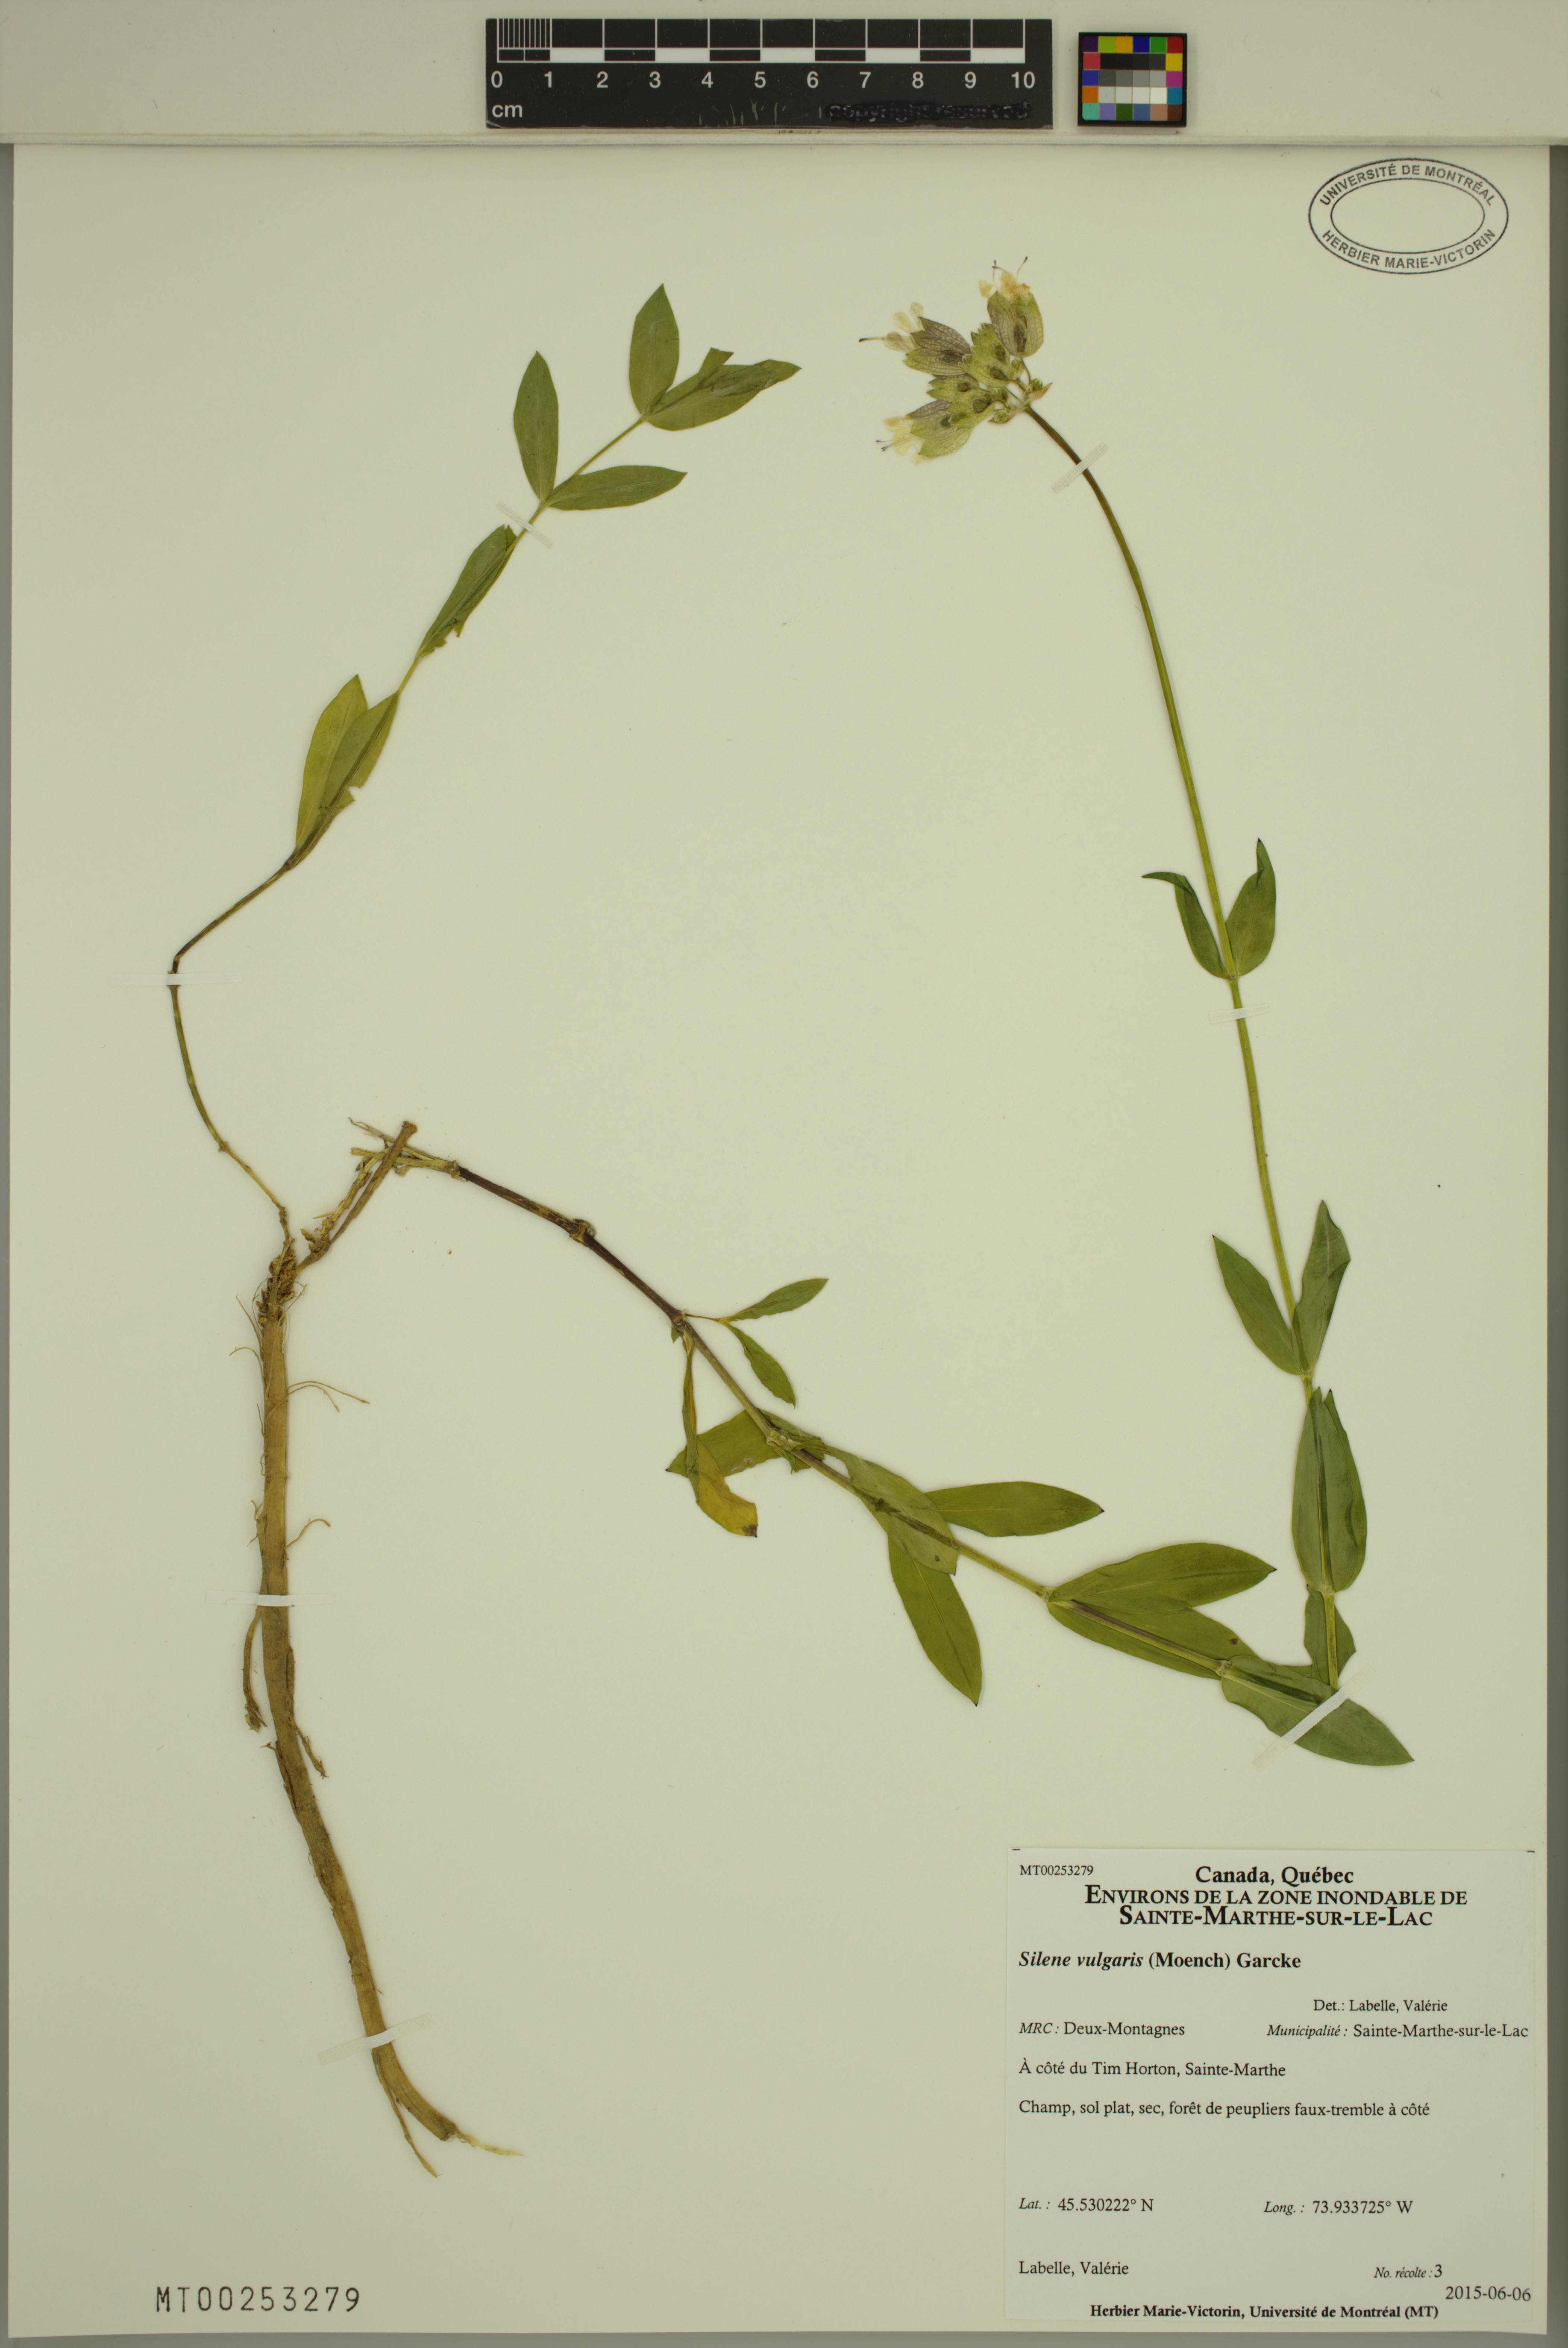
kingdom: Plantae
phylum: Tracheophyta
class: Magnoliopsida
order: Caryophyllales
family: Caryophyllaceae
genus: Silene
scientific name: Silene vulgaris
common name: Bladder campion
